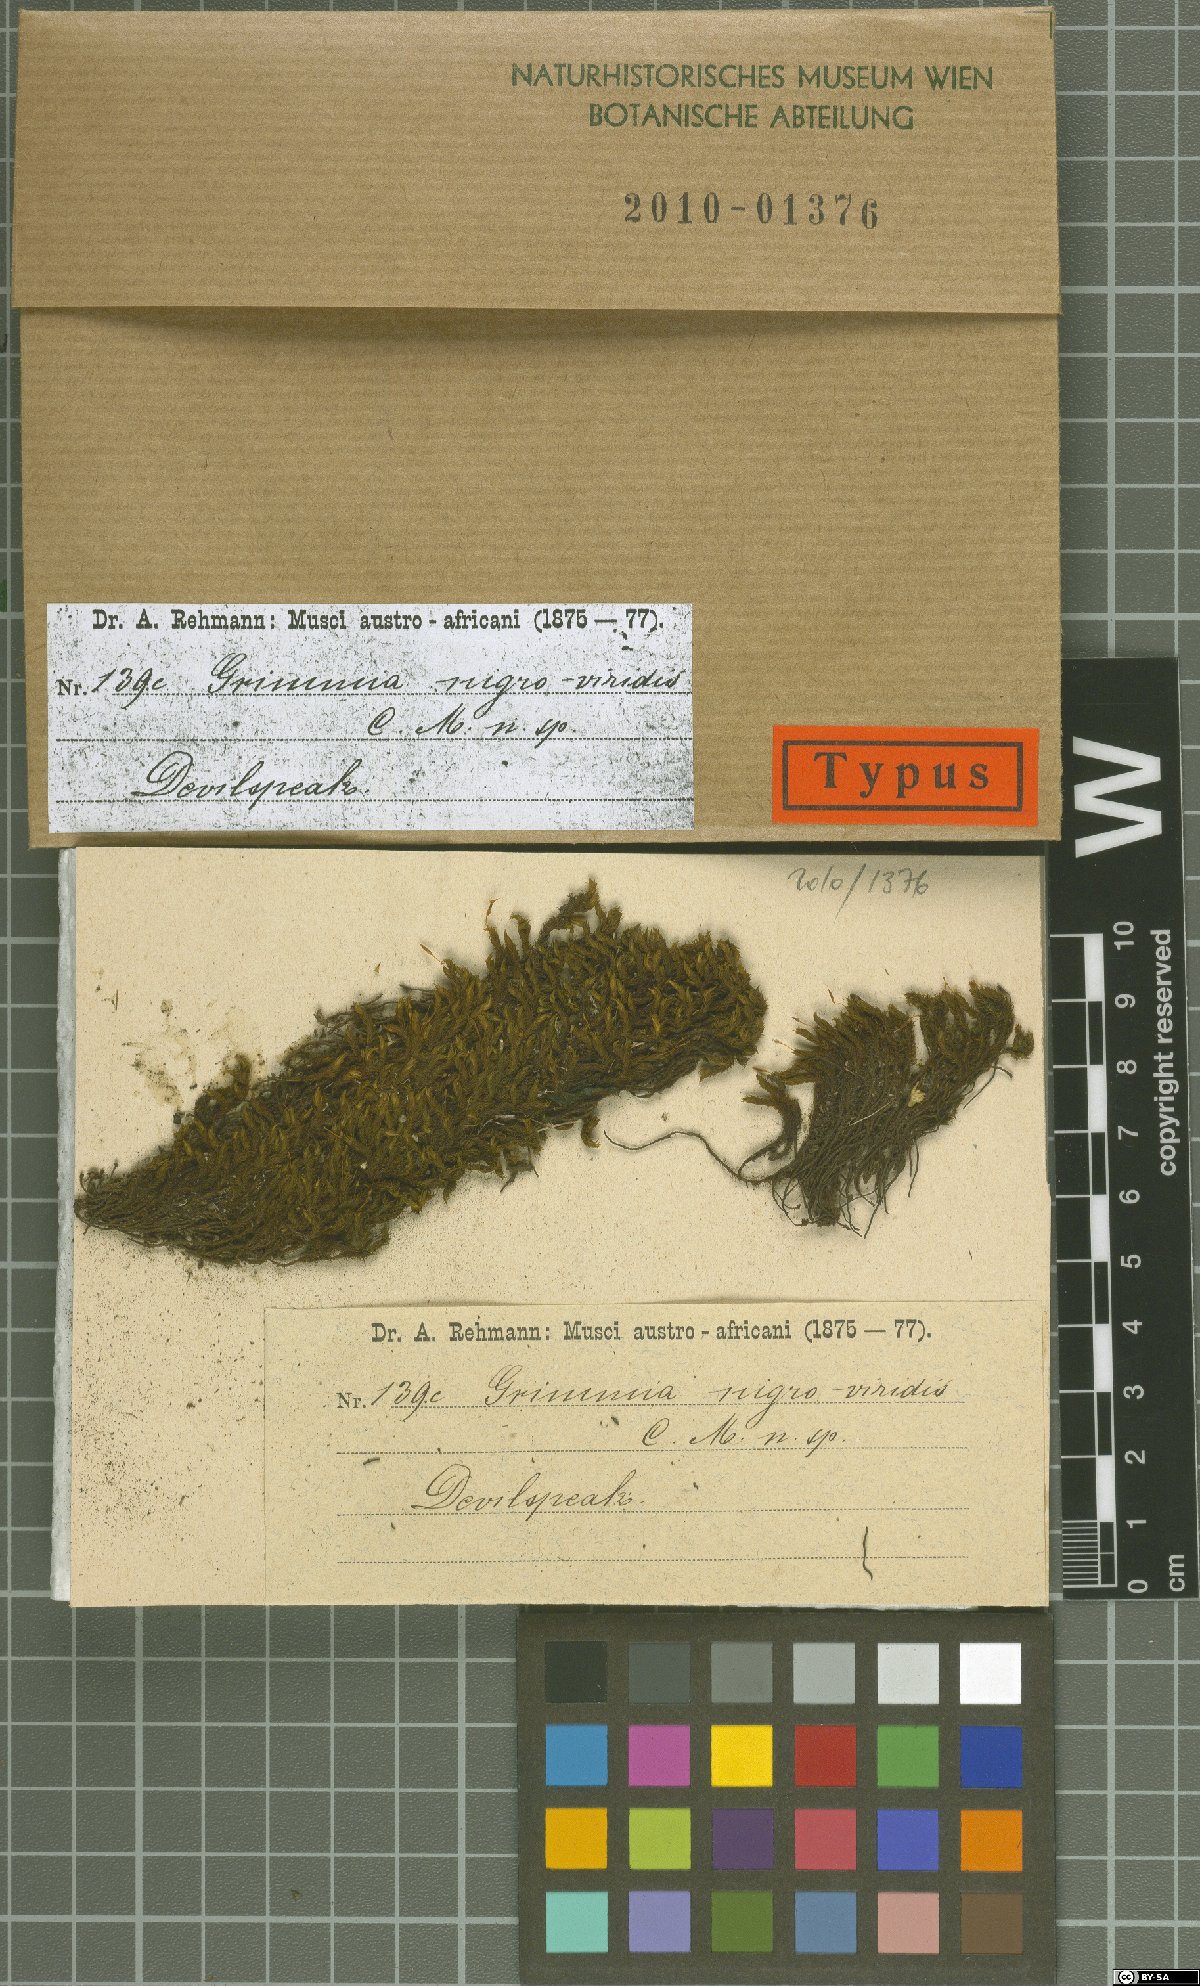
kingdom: Plantae
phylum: Bryophyta
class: Bryopsida
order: Grimmiales
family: Grimmiaceae
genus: Bucklandiella
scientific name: Bucklandiella lamprocarpa
